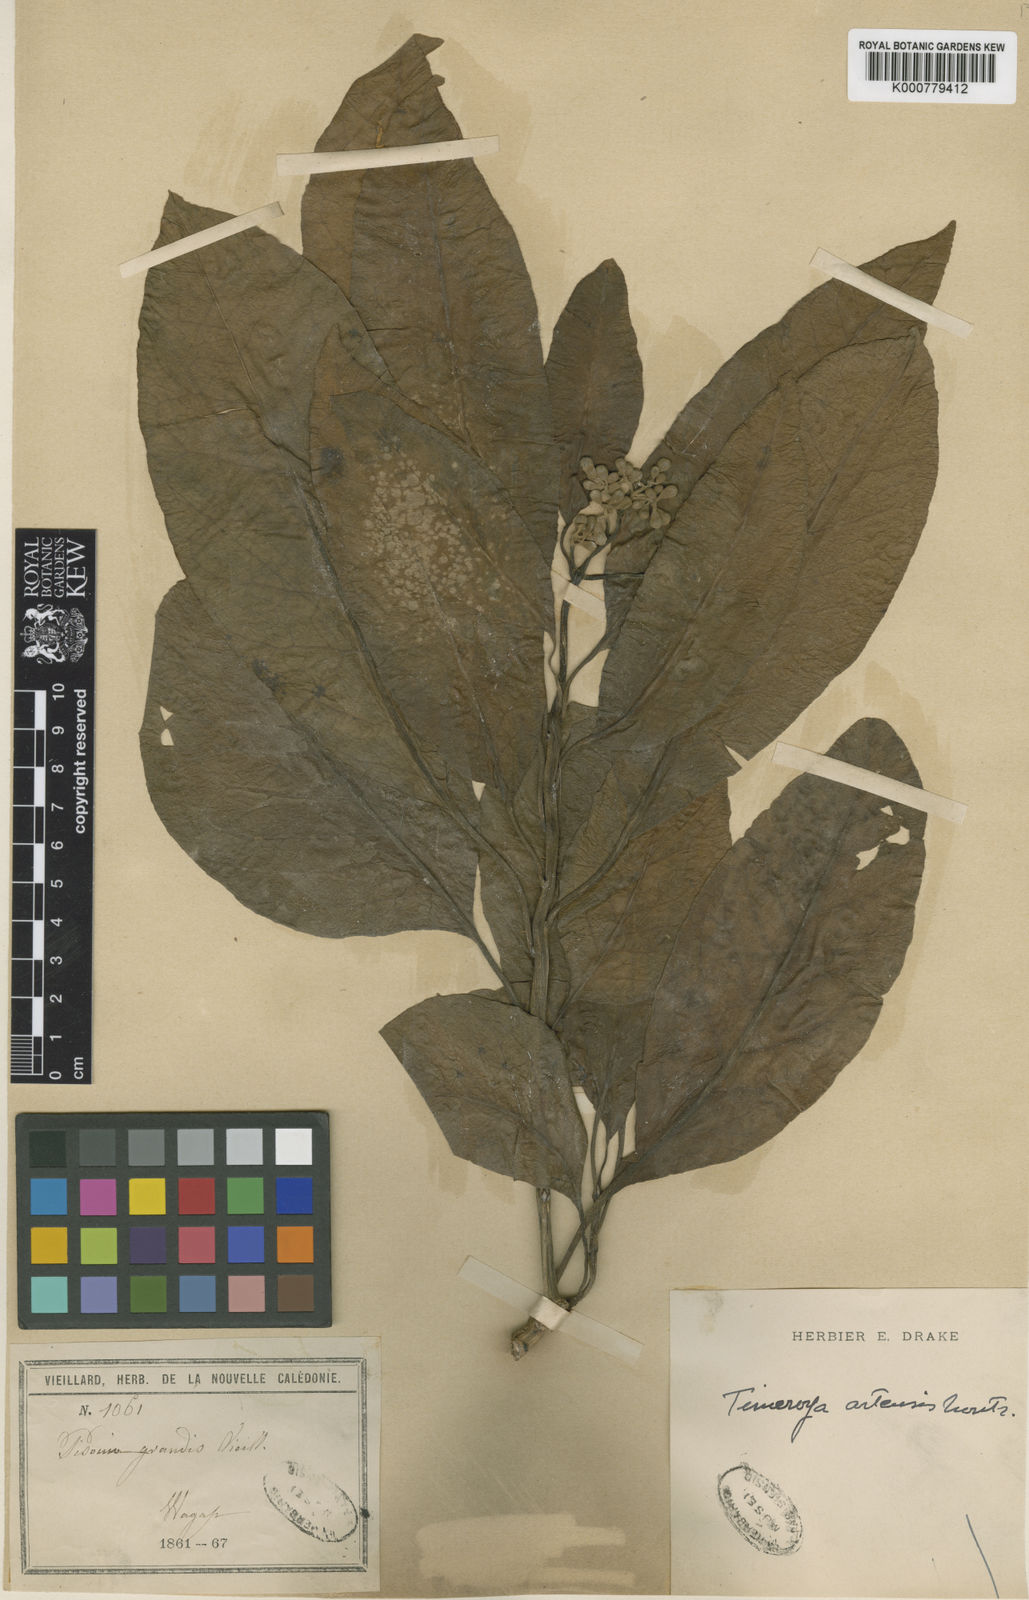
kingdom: Plantae
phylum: Tracheophyta
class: Magnoliopsida
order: Caryophyllales
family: Nyctaginaceae
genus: Ceodes
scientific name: Ceodes artensis
